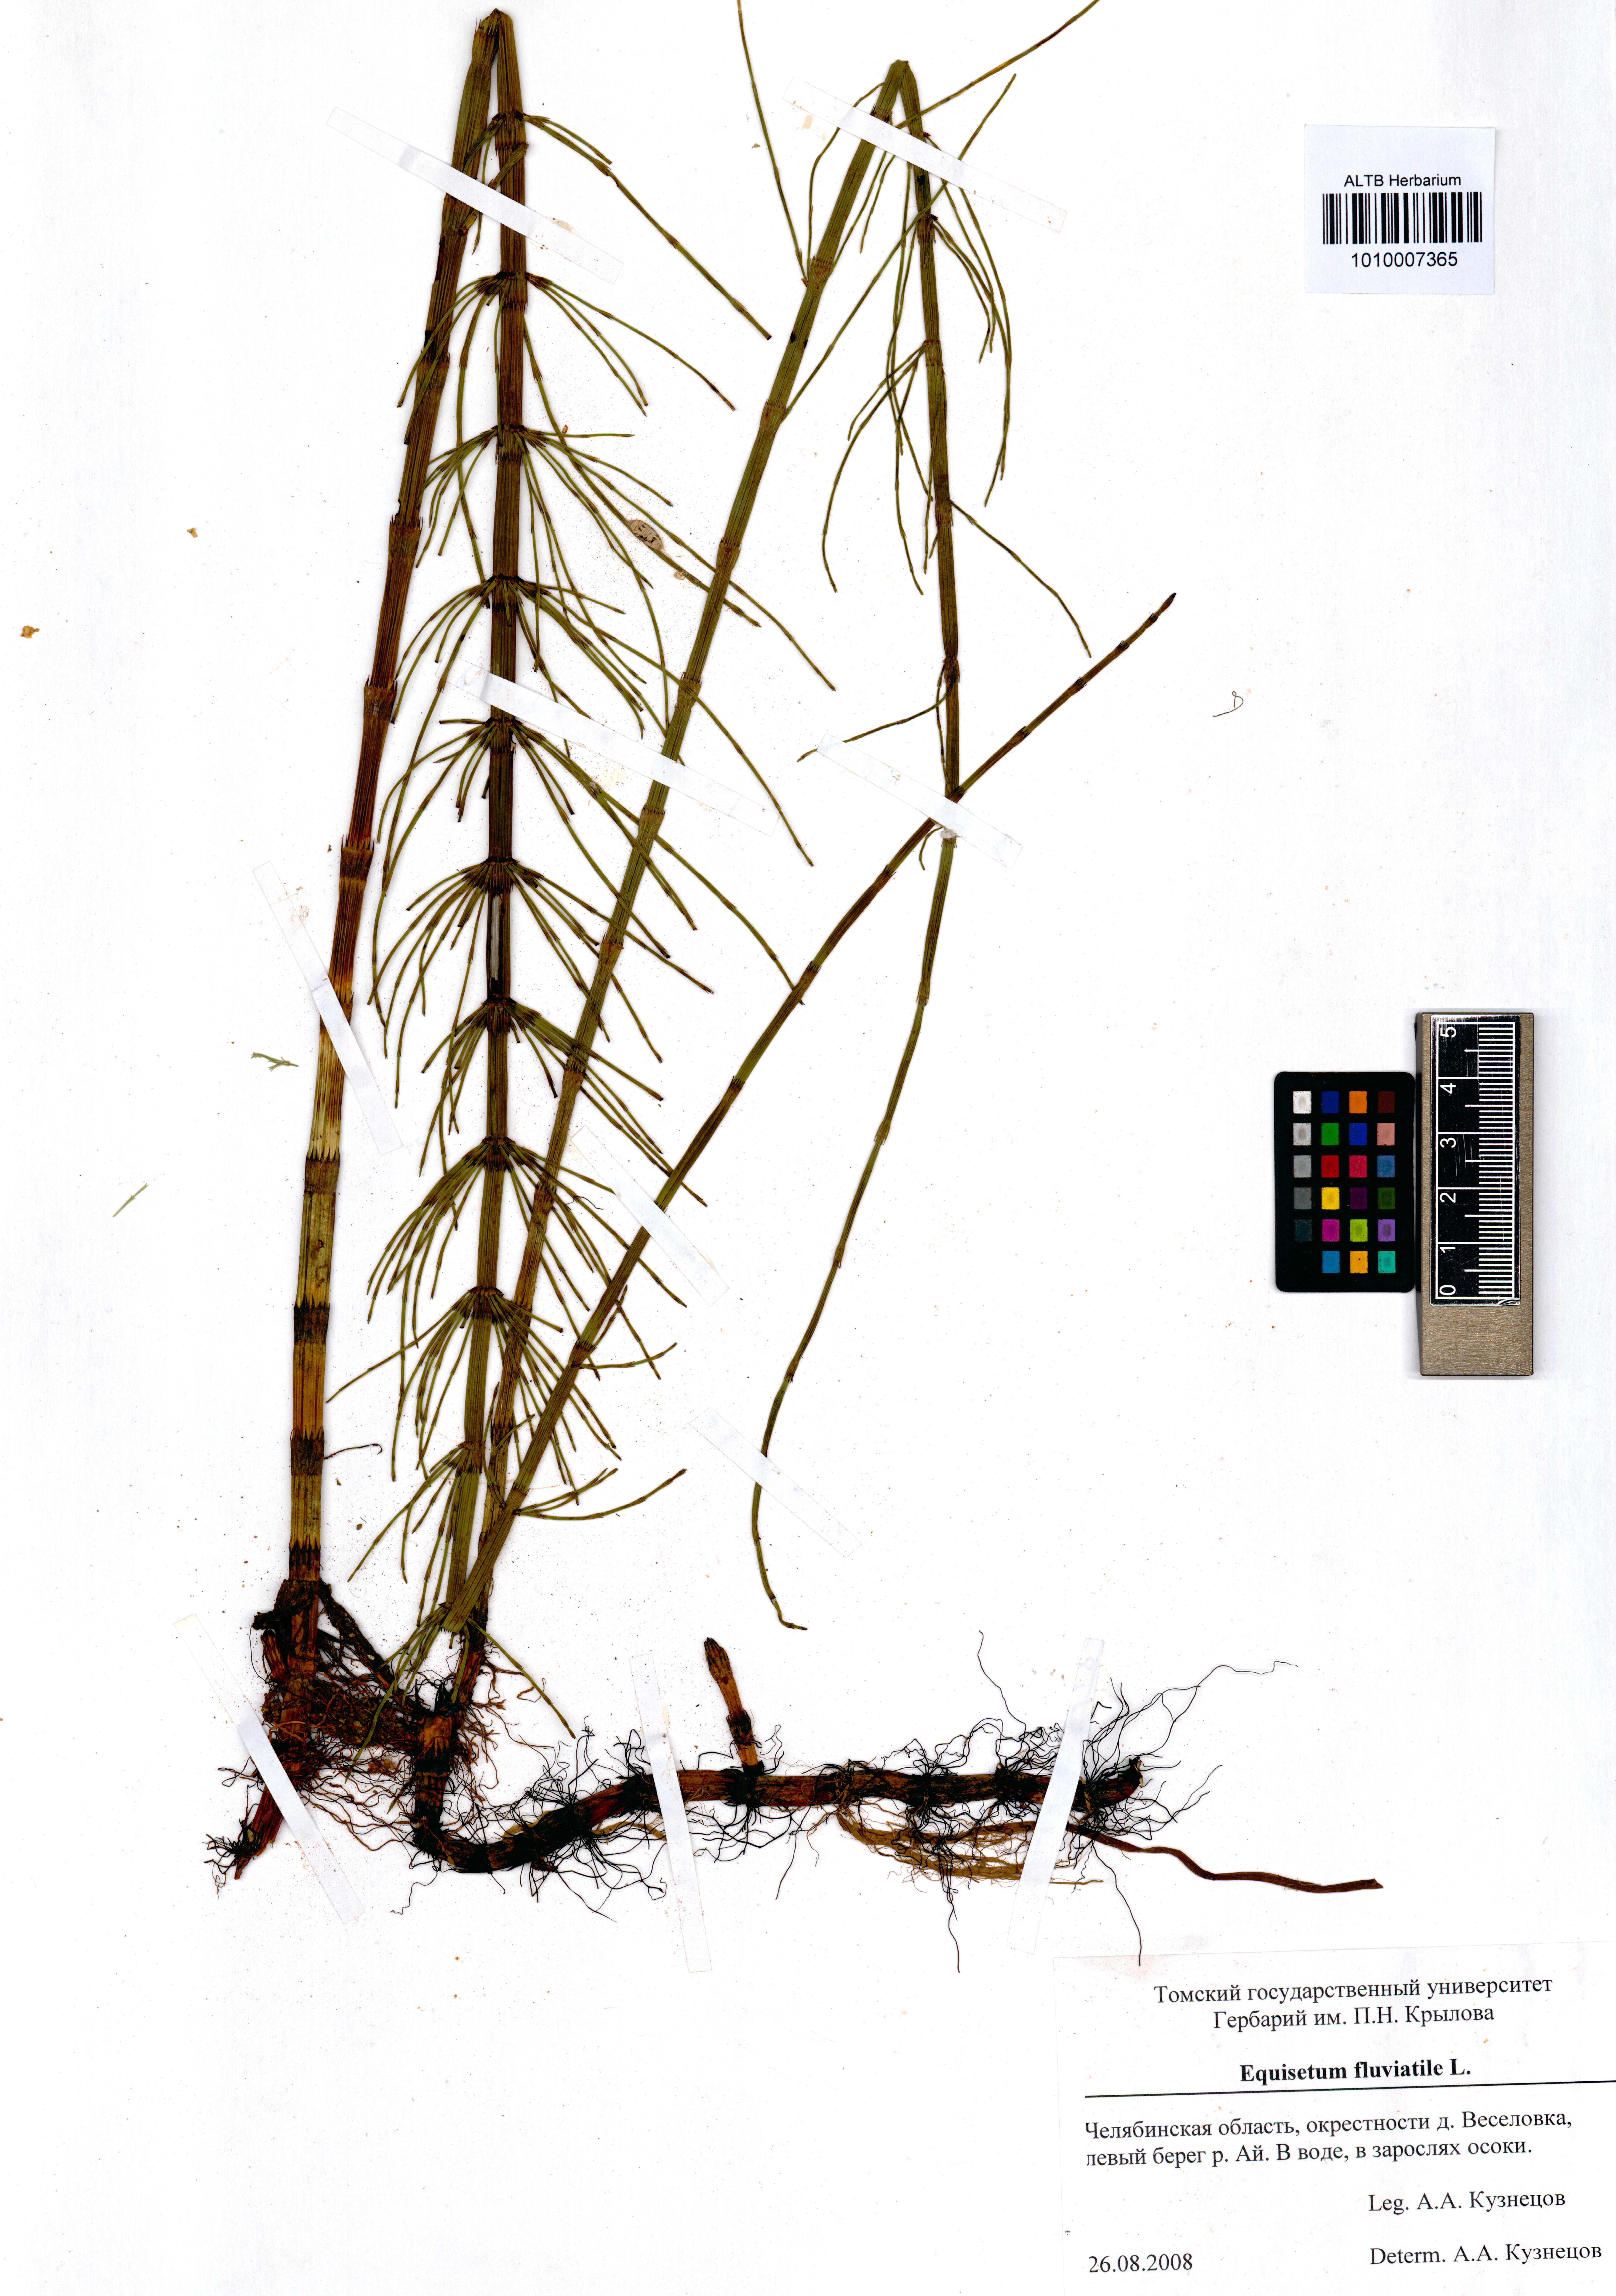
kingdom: Plantae
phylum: Tracheophyta
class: Polypodiopsida
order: Equisetales
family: Equisetaceae
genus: Equisetum
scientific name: Equisetum fluviatile
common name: Water horsetail
